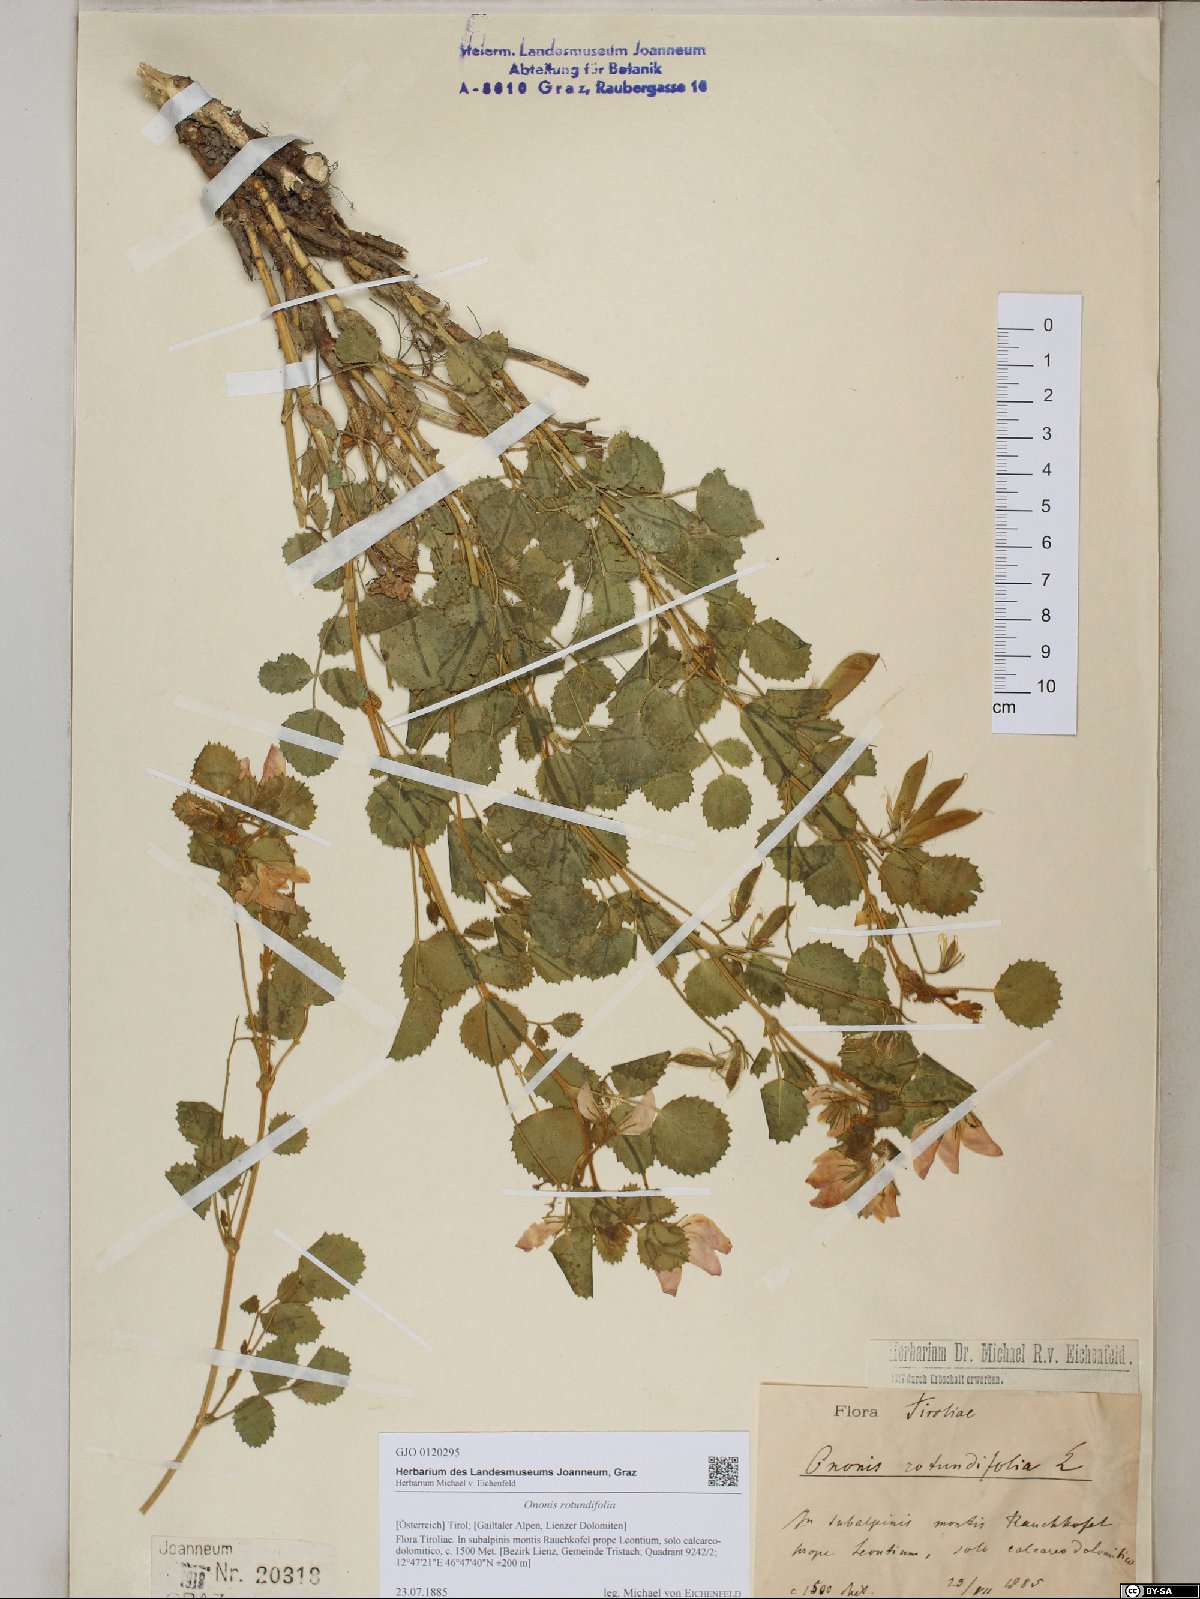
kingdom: Plantae
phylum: Tracheophyta
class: Magnoliopsida
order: Fabales
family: Fabaceae
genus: Ononis
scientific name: Ononis rotundifolia
